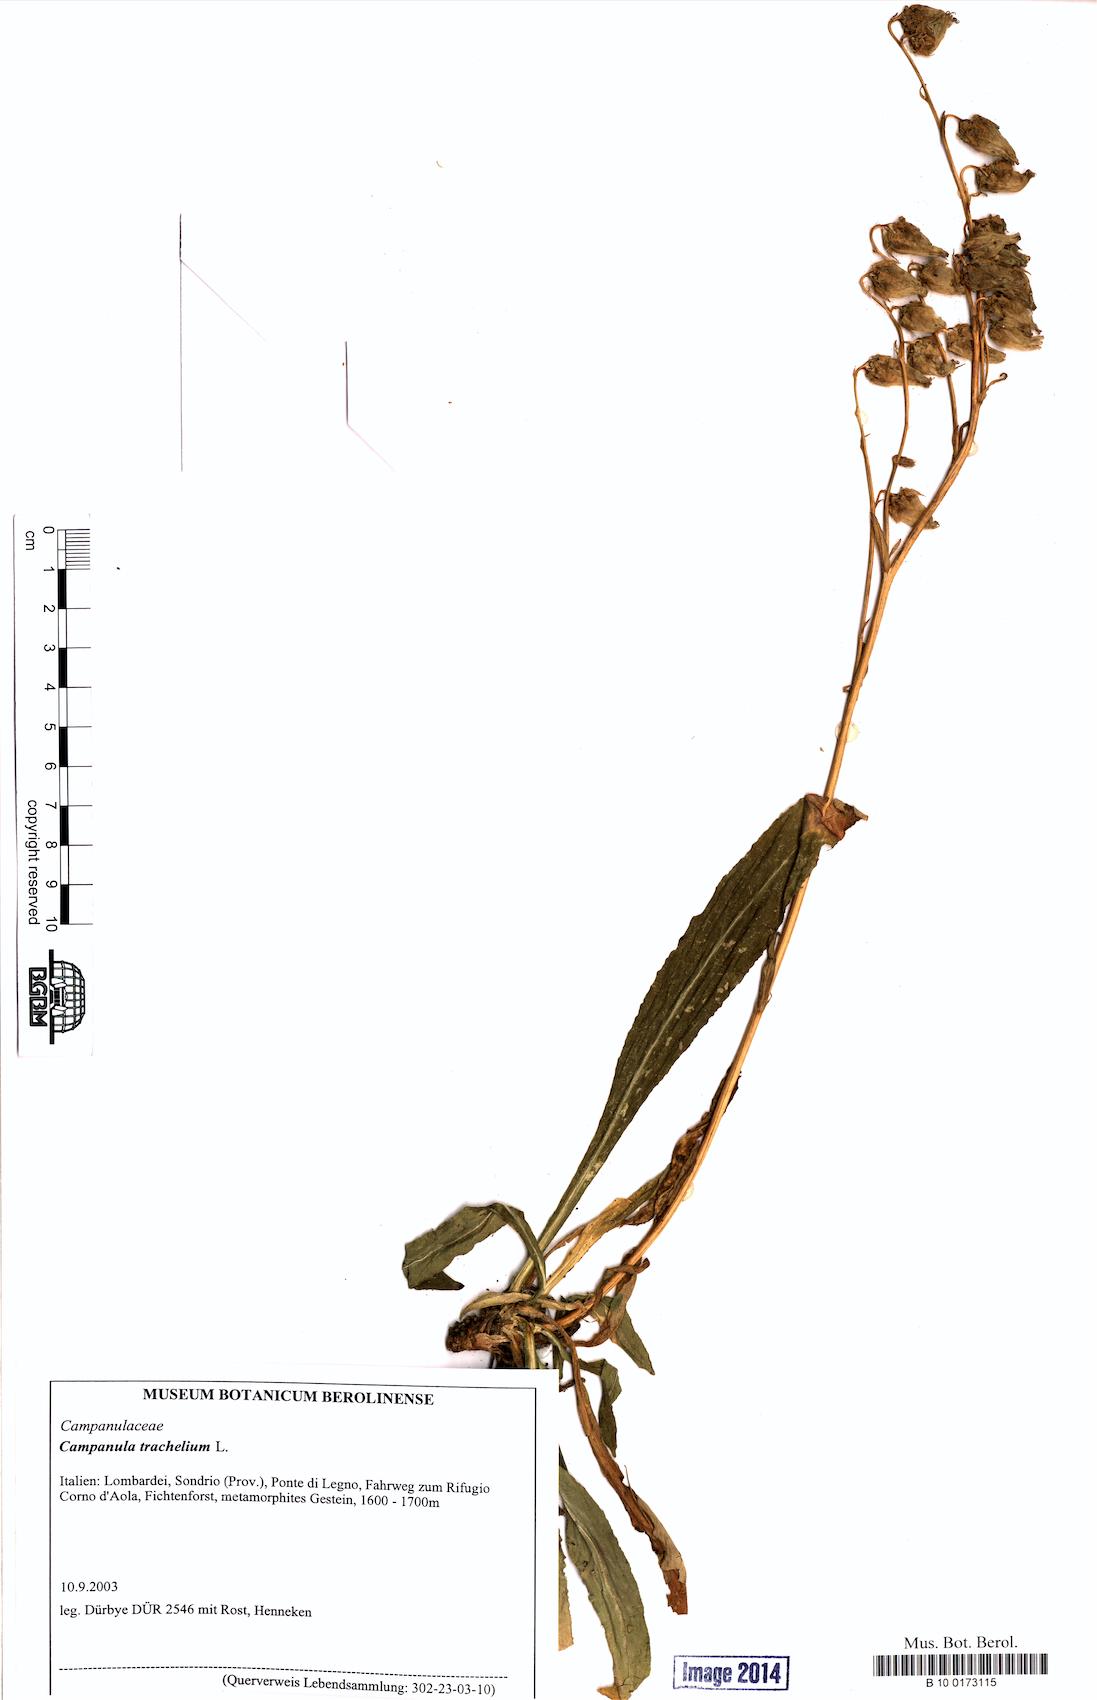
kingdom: Plantae
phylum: Tracheophyta
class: Magnoliopsida
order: Asterales
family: Campanulaceae
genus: Campanula
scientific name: Campanula trachelium
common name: Nettle-leaved bellflower
